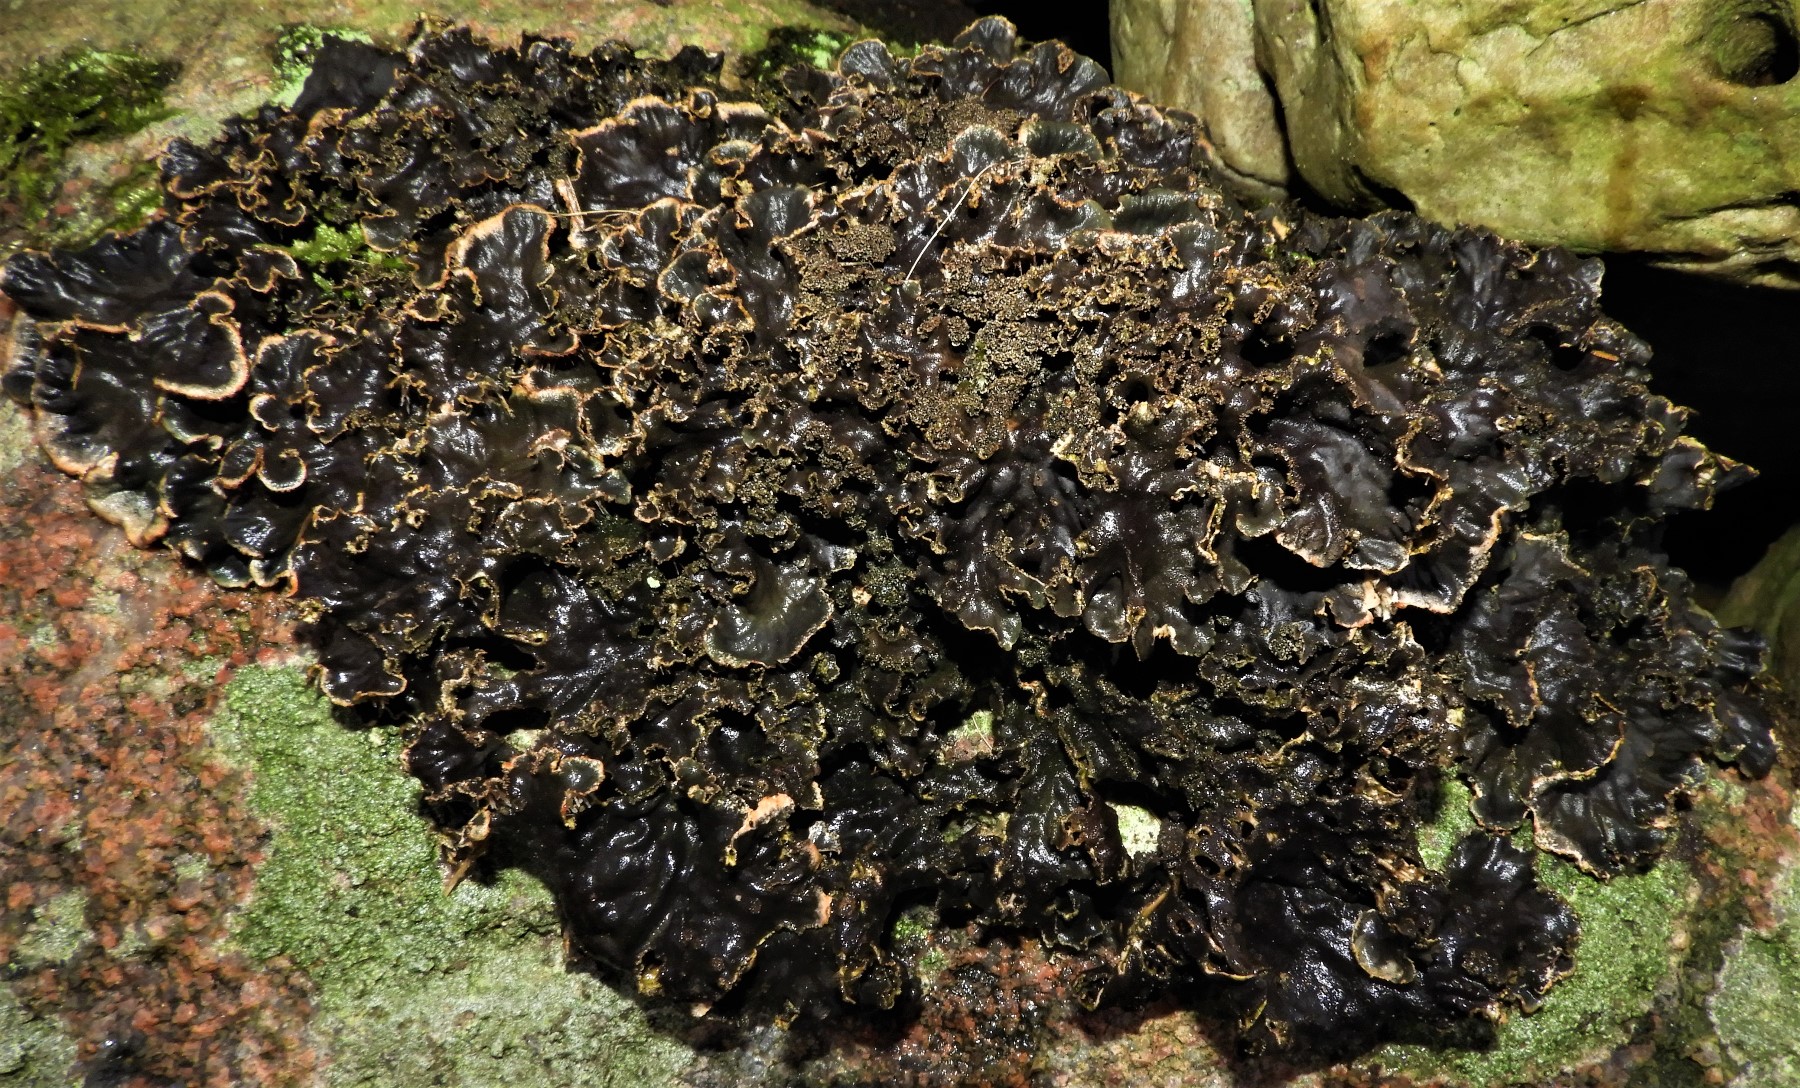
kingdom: Fungi
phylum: Ascomycota
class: Lecanoromycetes
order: Peltigerales
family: Peltigeraceae
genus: Peltigera
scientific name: Peltigera praetextata
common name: kruset skjoldlav
